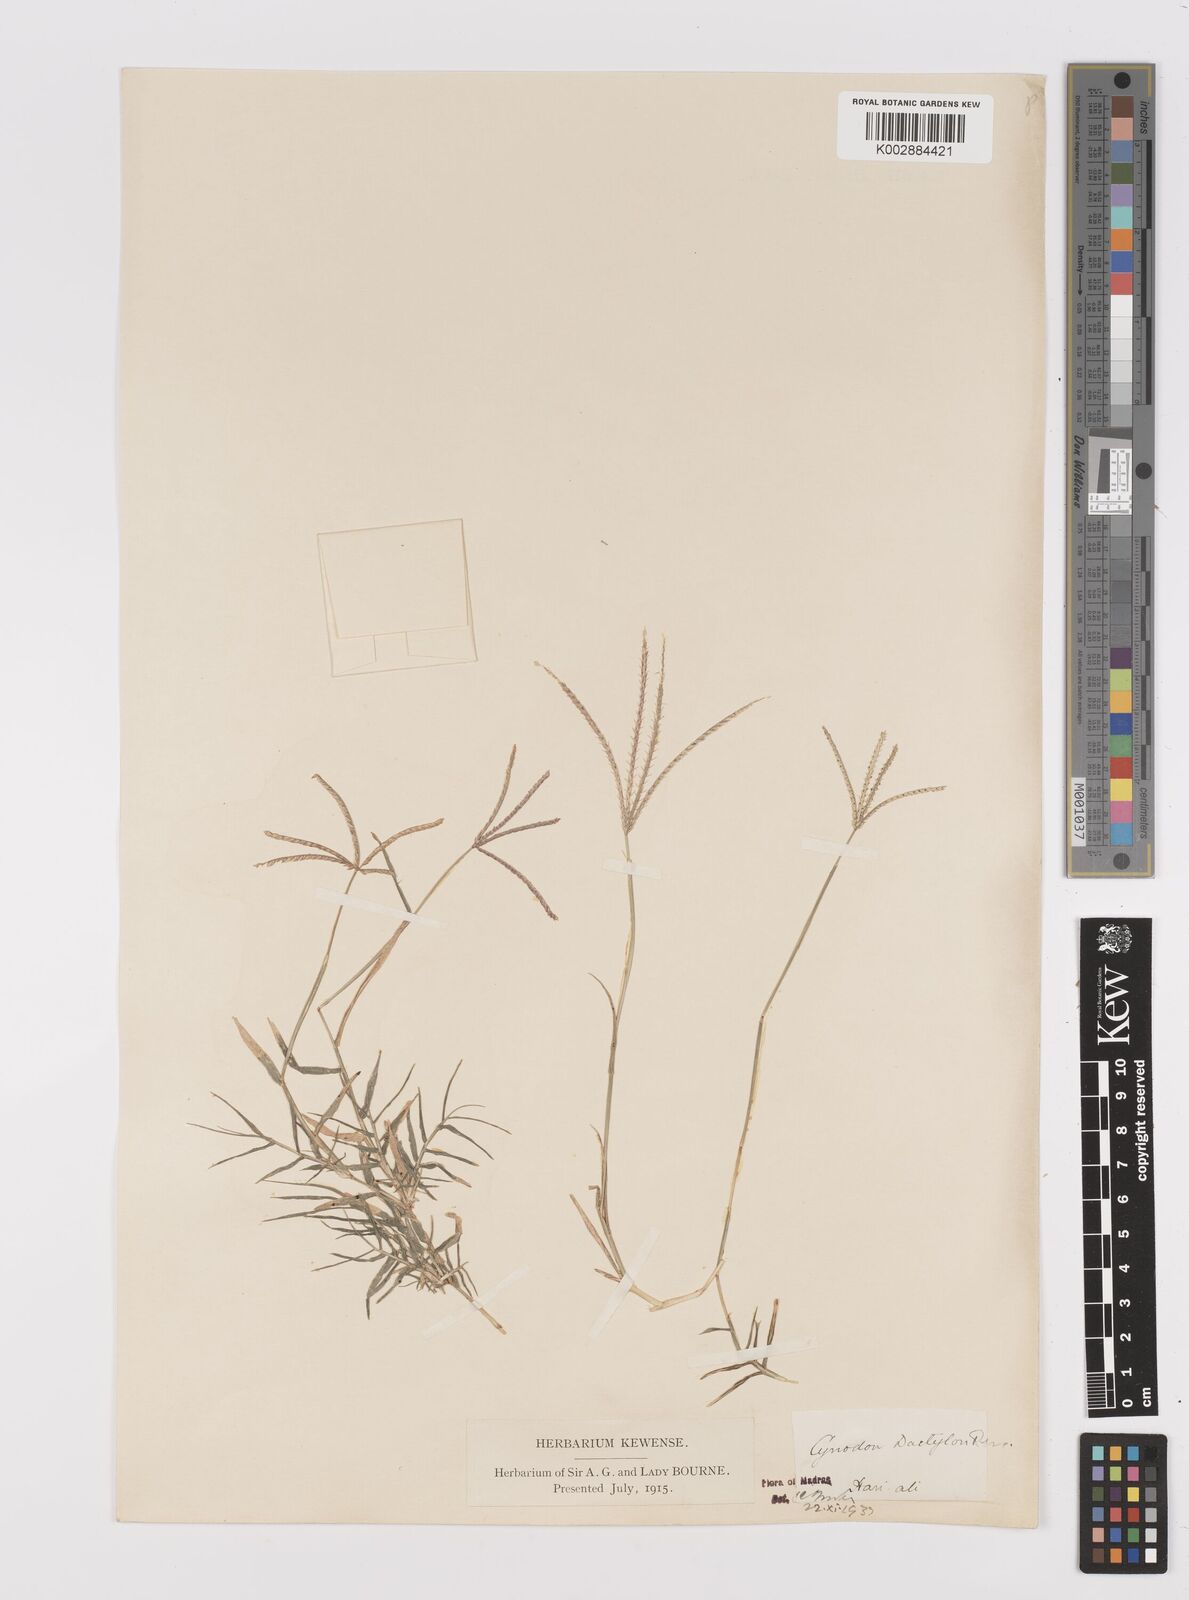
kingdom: Plantae
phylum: Tracheophyta
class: Liliopsida
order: Poales
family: Poaceae
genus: Cynodon
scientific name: Cynodon dactylon
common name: Bermuda grass
